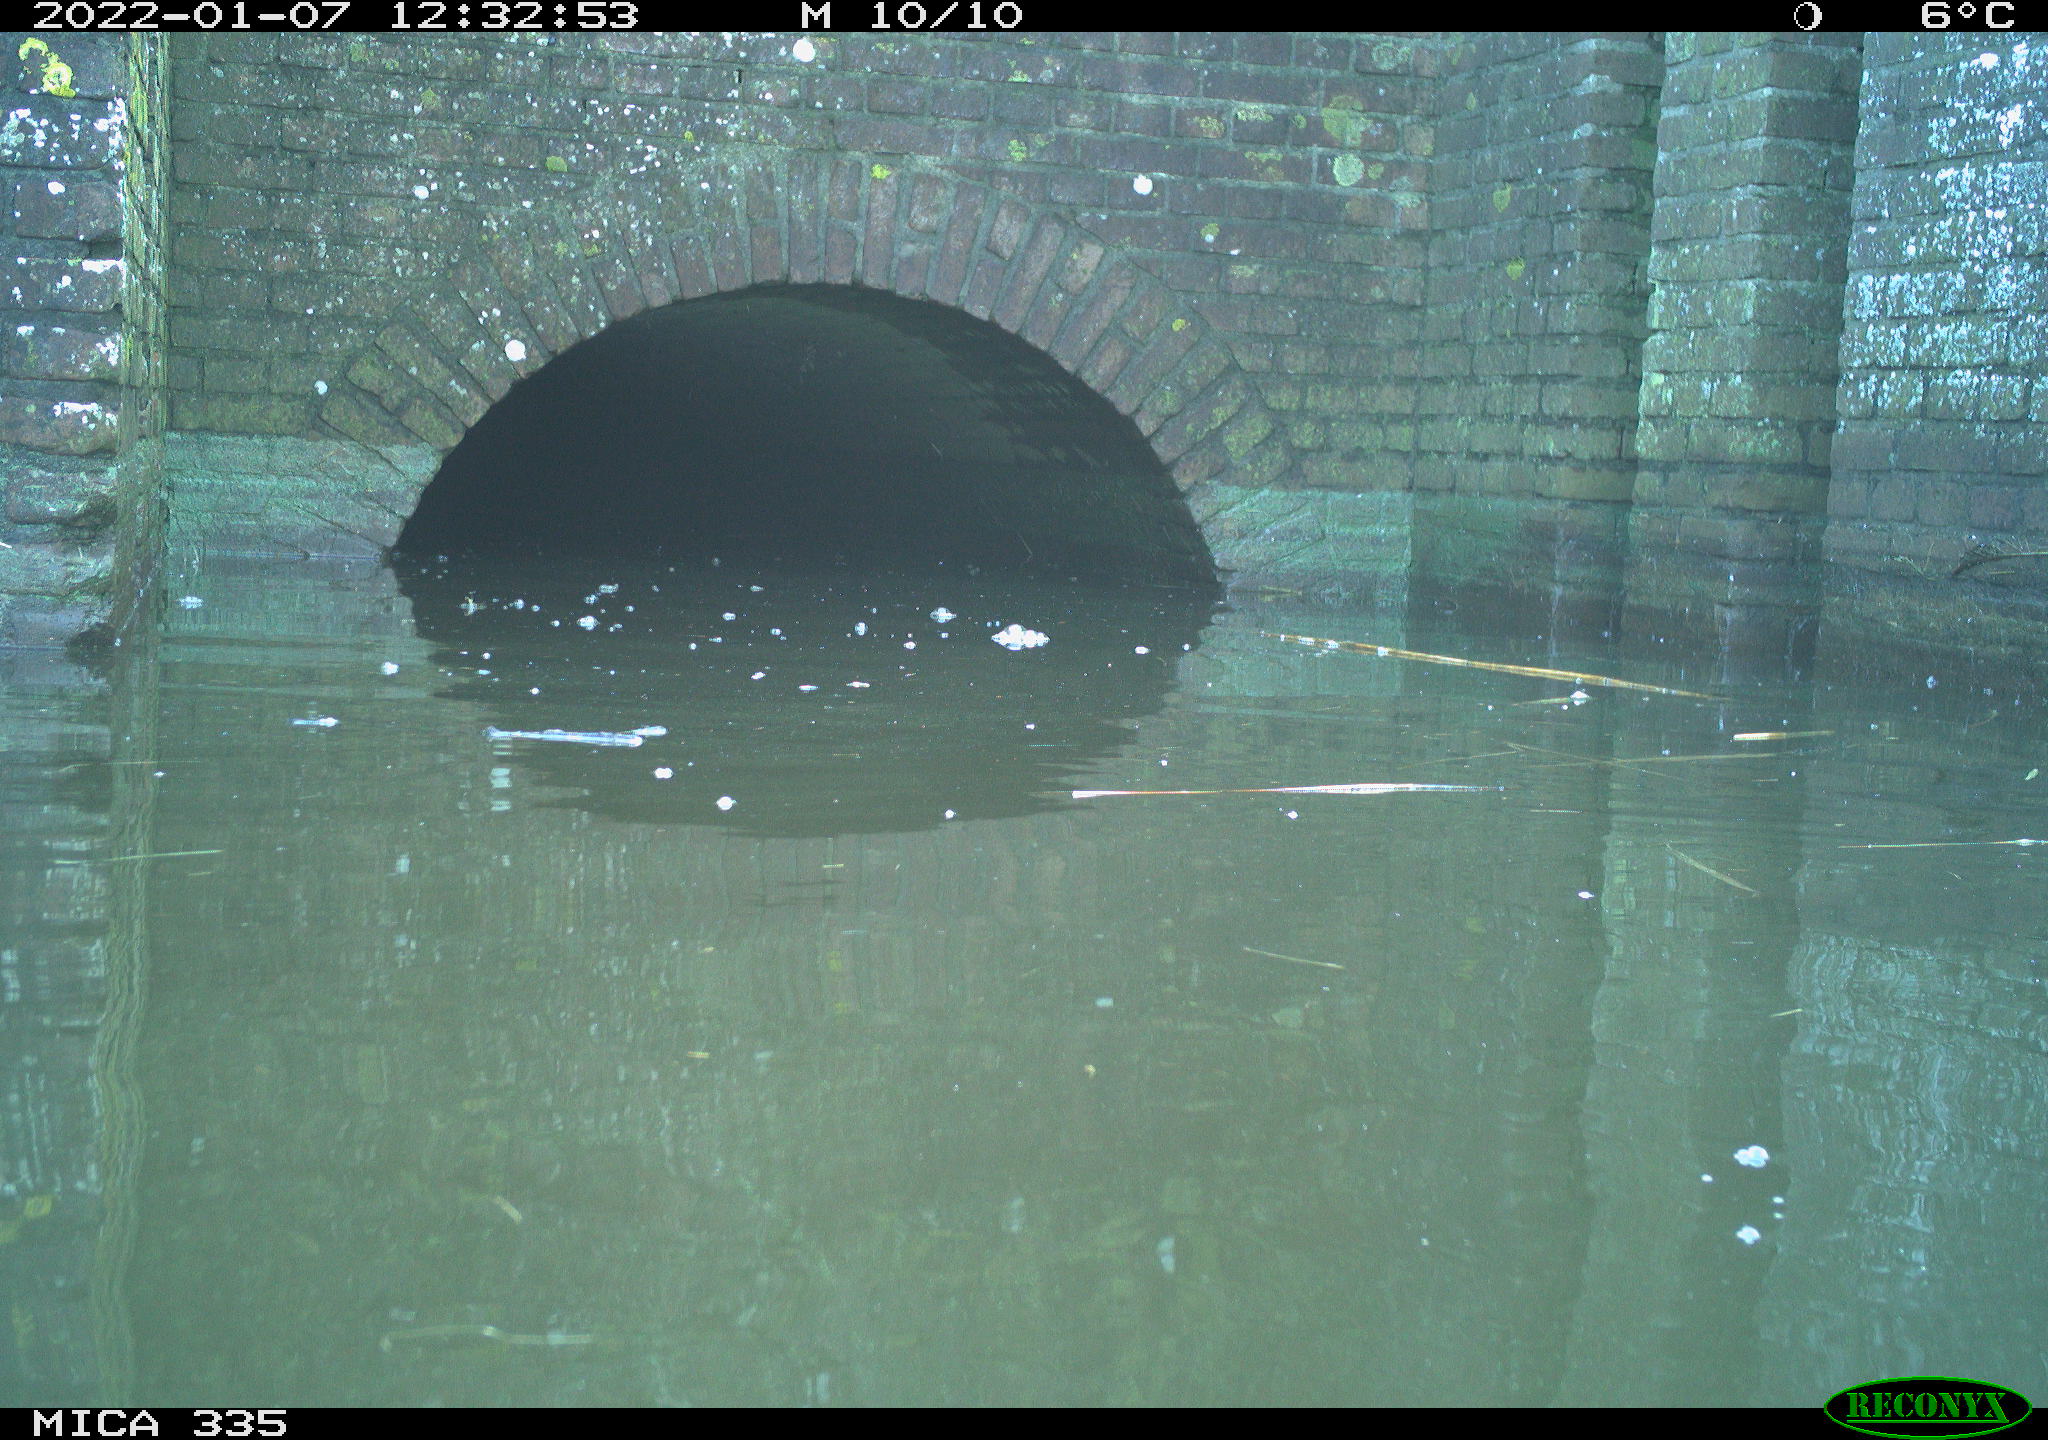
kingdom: Animalia
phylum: Chordata
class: Aves
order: Gruiformes
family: Rallidae
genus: Gallinula
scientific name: Gallinula chloropus
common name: Common moorhen
